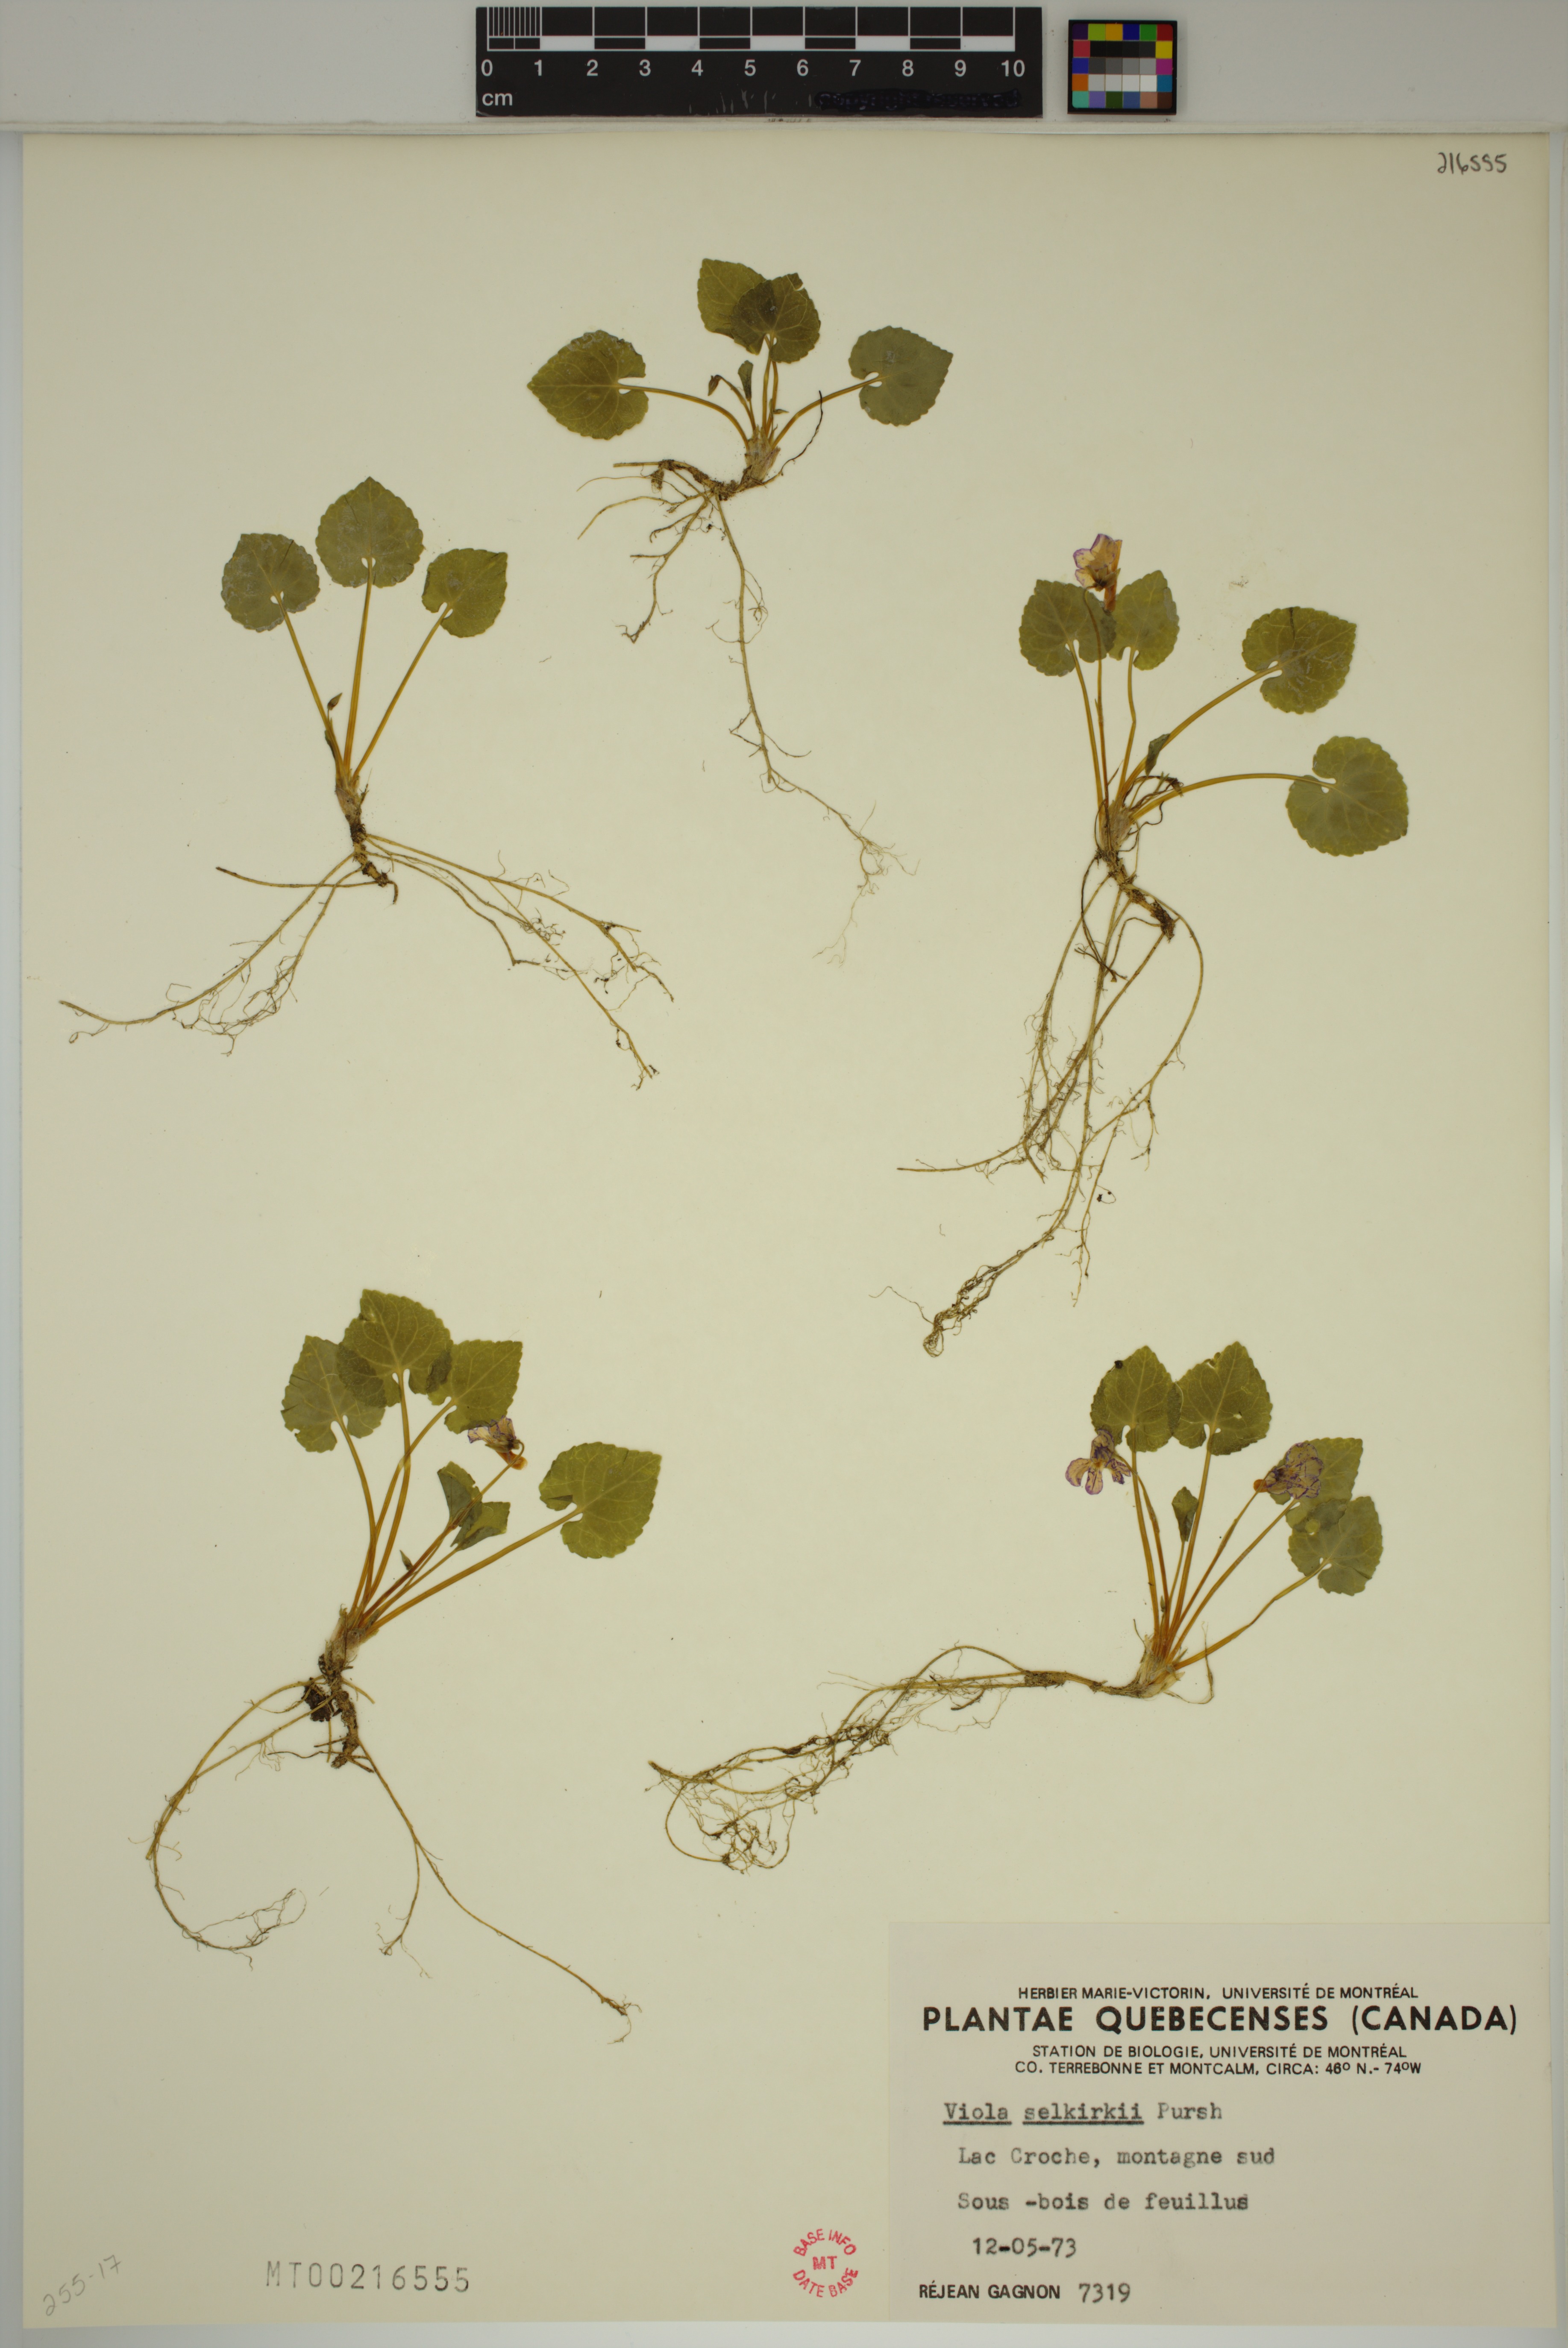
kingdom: Plantae
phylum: Tracheophyta
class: Magnoliopsida
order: Malpighiales
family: Violaceae
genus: Viola
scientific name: Viola selkirkii
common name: Selkirk's violet
